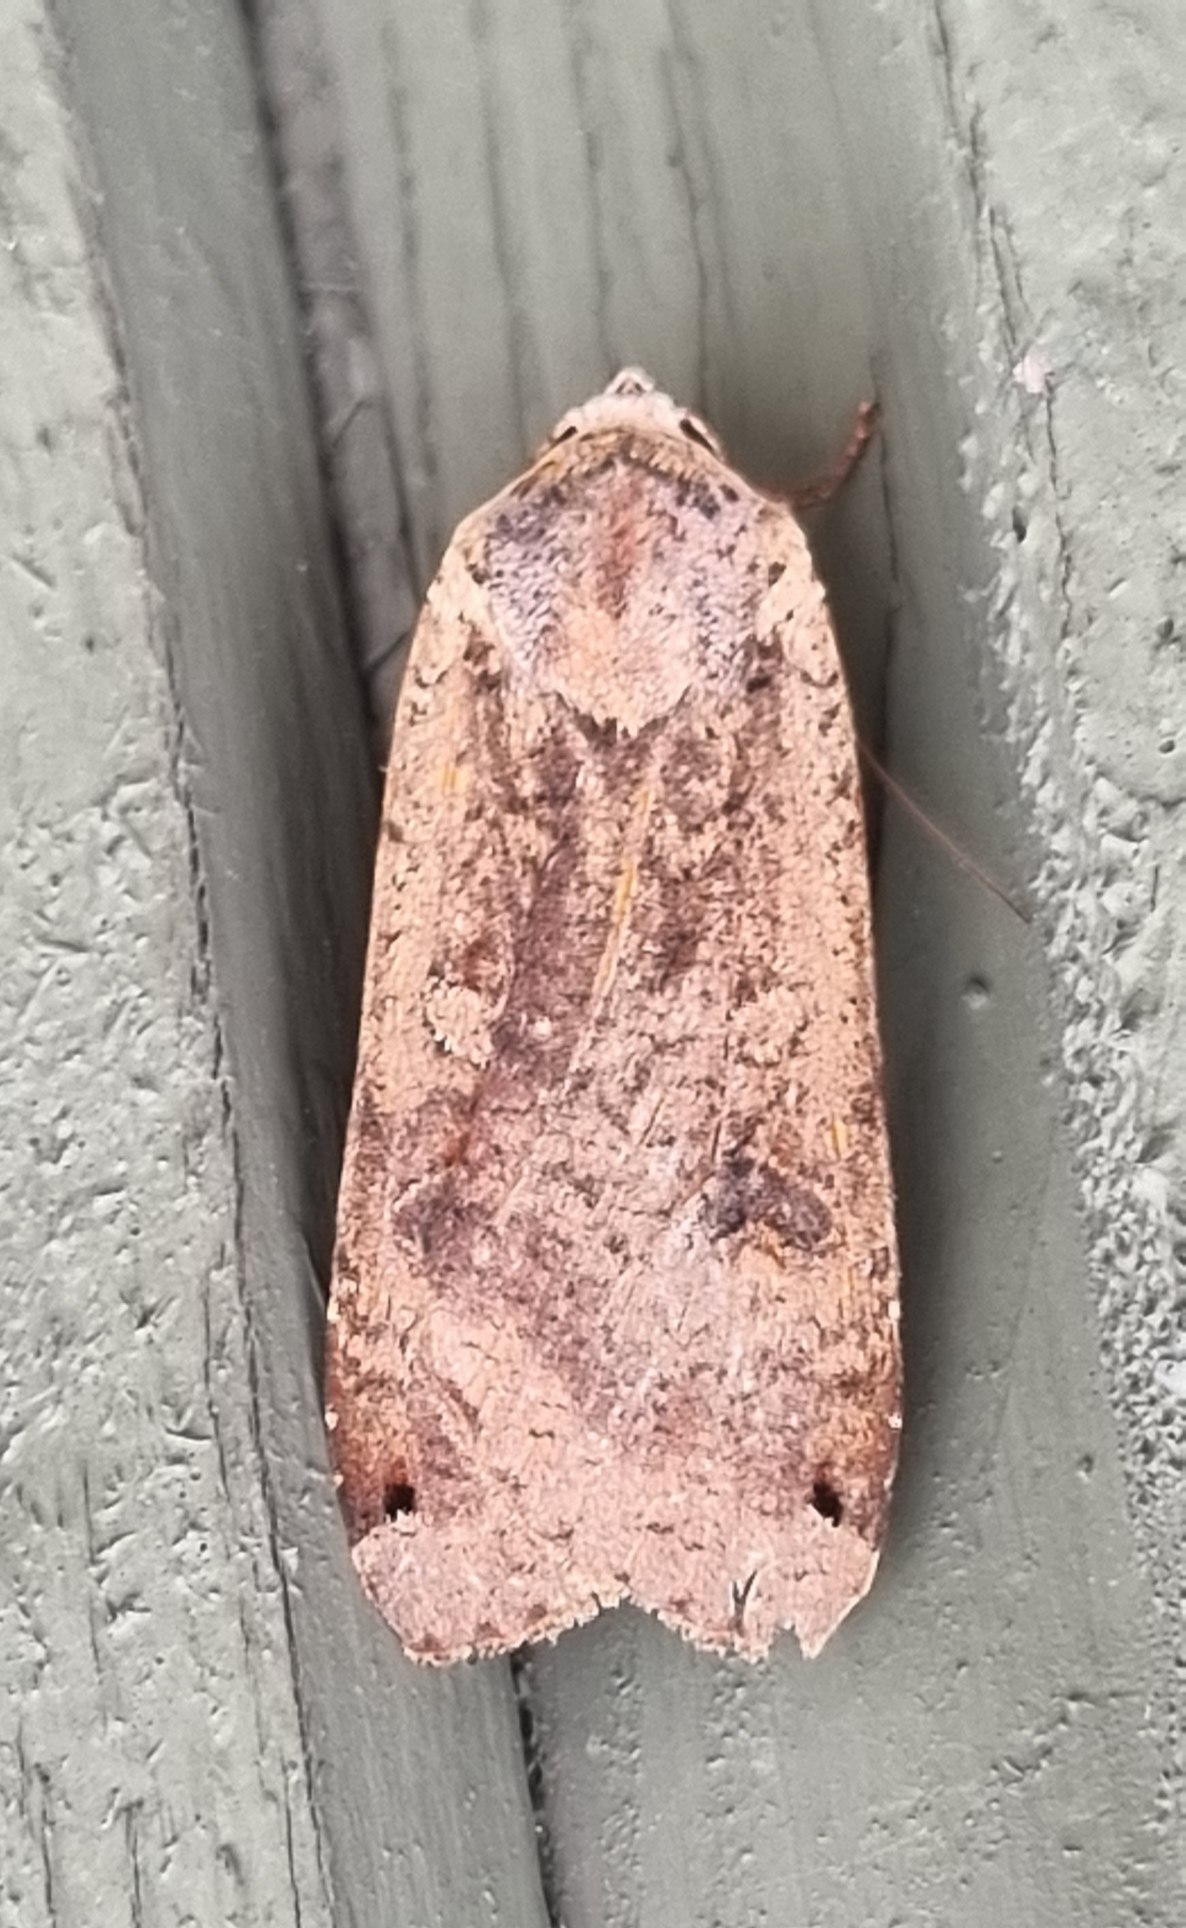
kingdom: Animalia
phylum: Arthropoda
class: Insecta
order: Lepidoptera
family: Noctuidae
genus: Noctua
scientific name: Noctua pronuba
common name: Stor smutugle
